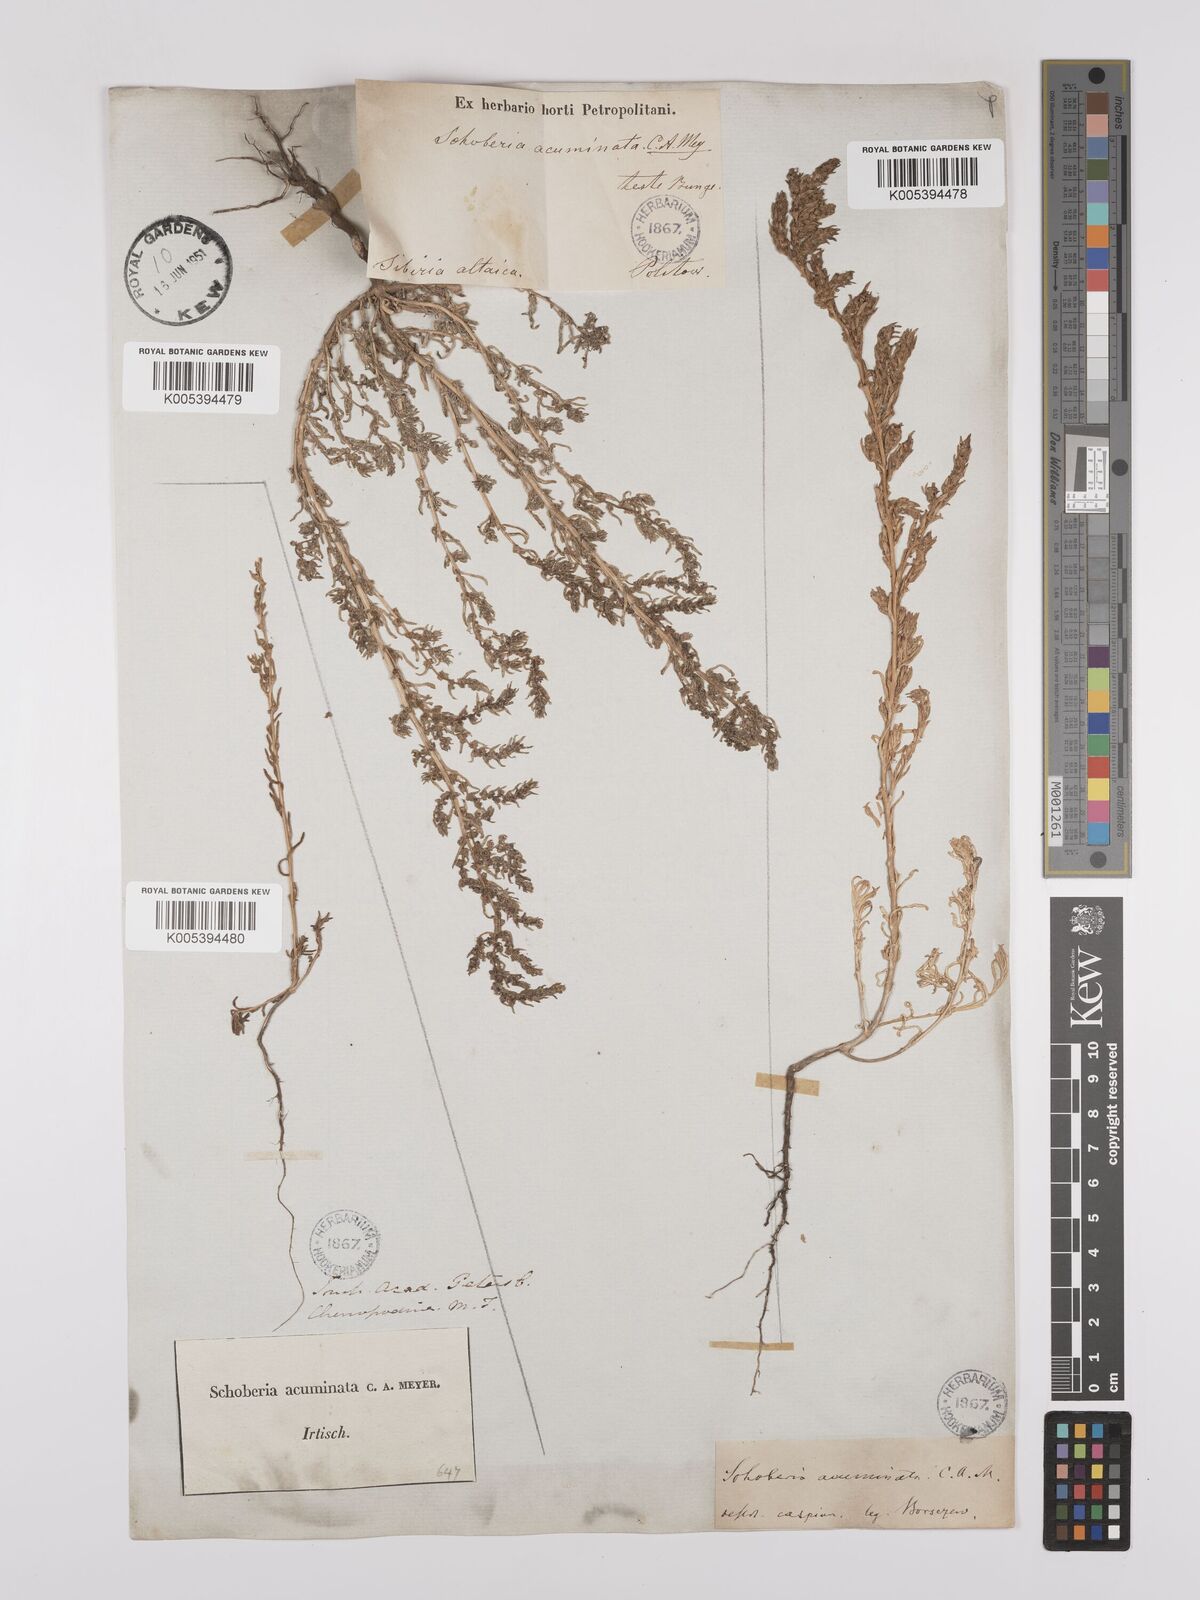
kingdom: Plantae
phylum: Tracheophyta
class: Magnoliopsida
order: Caryophyllales
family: Amaranthaceae
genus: Suaeda
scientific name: Suaeda acuminata
